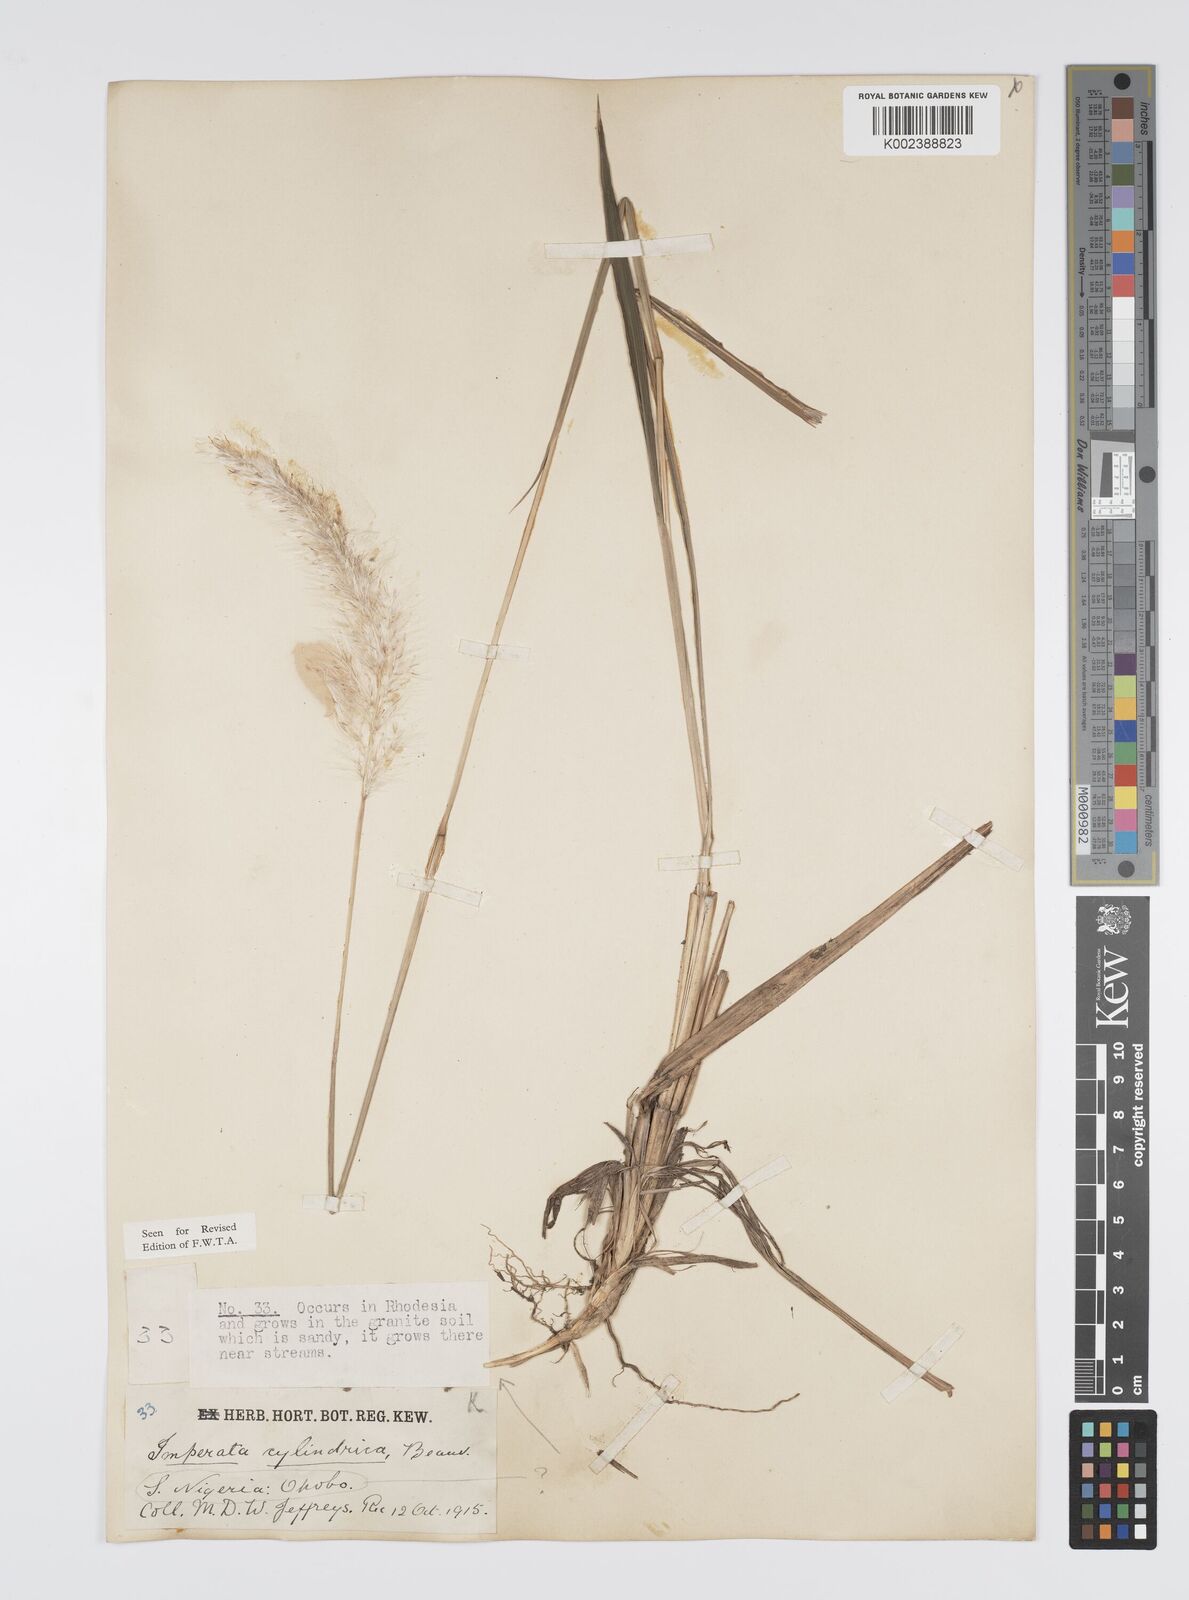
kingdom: Plantae
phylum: Tracheophyta
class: Liliopsida
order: Poales
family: Poaceae
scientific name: Poaceae
